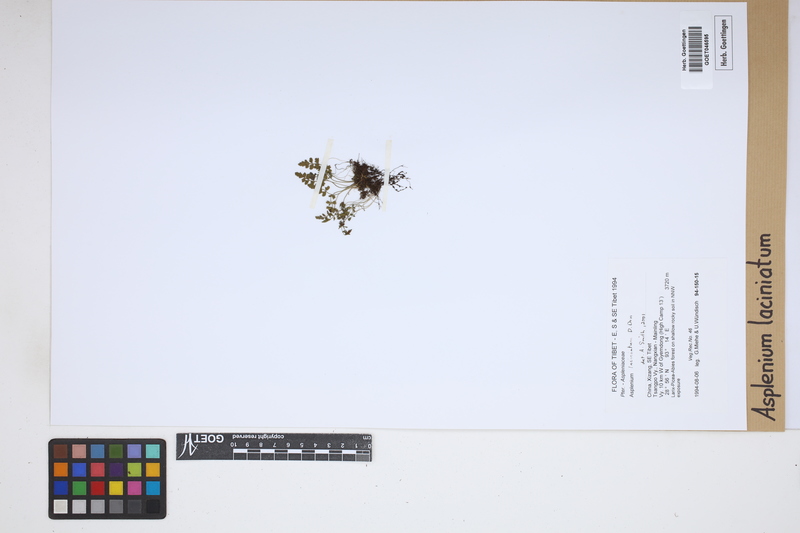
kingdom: Plantae
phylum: Tracheophyta
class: Polypodiopsida
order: Polypodiales
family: Aspleniaceae
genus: Asplenium
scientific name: Asplenium laciniatum
